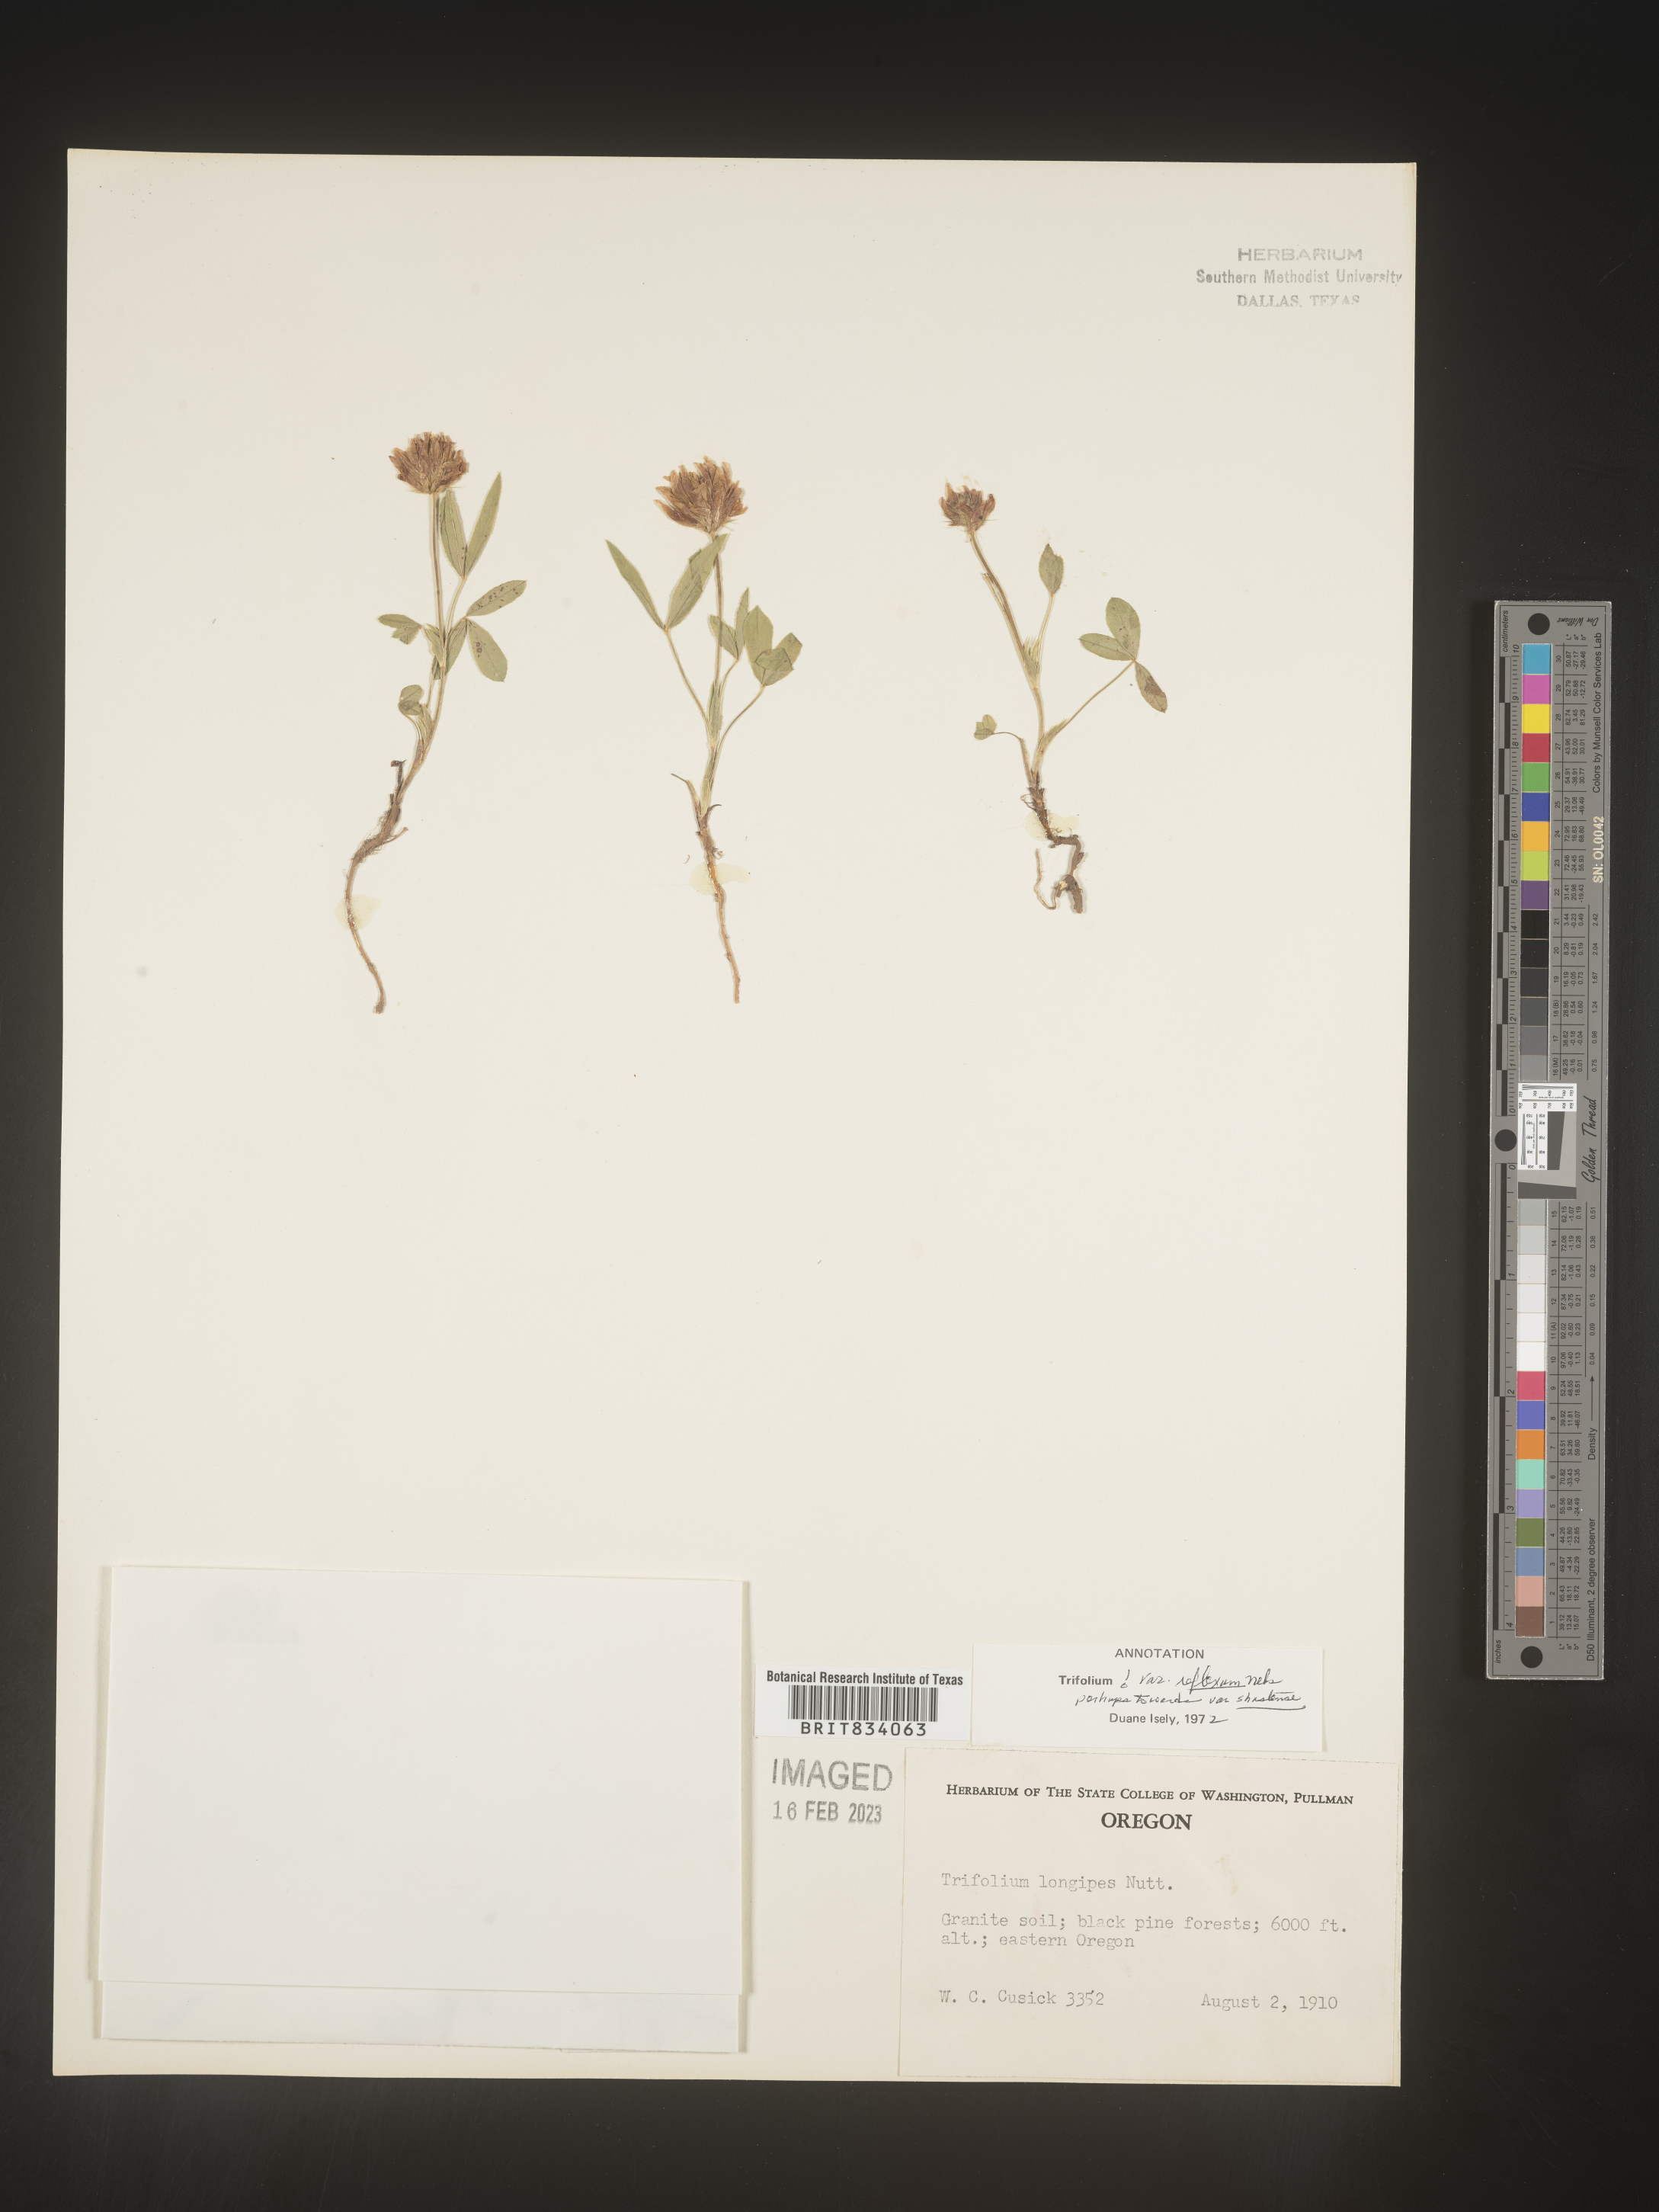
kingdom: Plantae
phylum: Tracheophyta
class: Magnoliopsida
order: Fabales
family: Fabaceae
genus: Trifolium
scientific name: Trifolium
